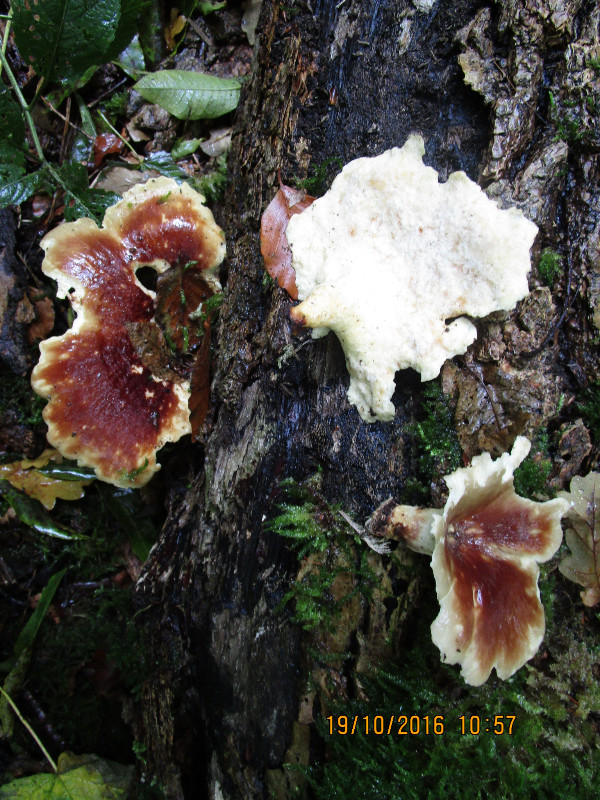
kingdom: Fungi
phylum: Basidiomycota
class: Agaricomycetes
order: Polyporales
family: Polyporaceae
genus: Picipes
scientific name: Picipes badius
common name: kastaniebrun stilkporesvamp
